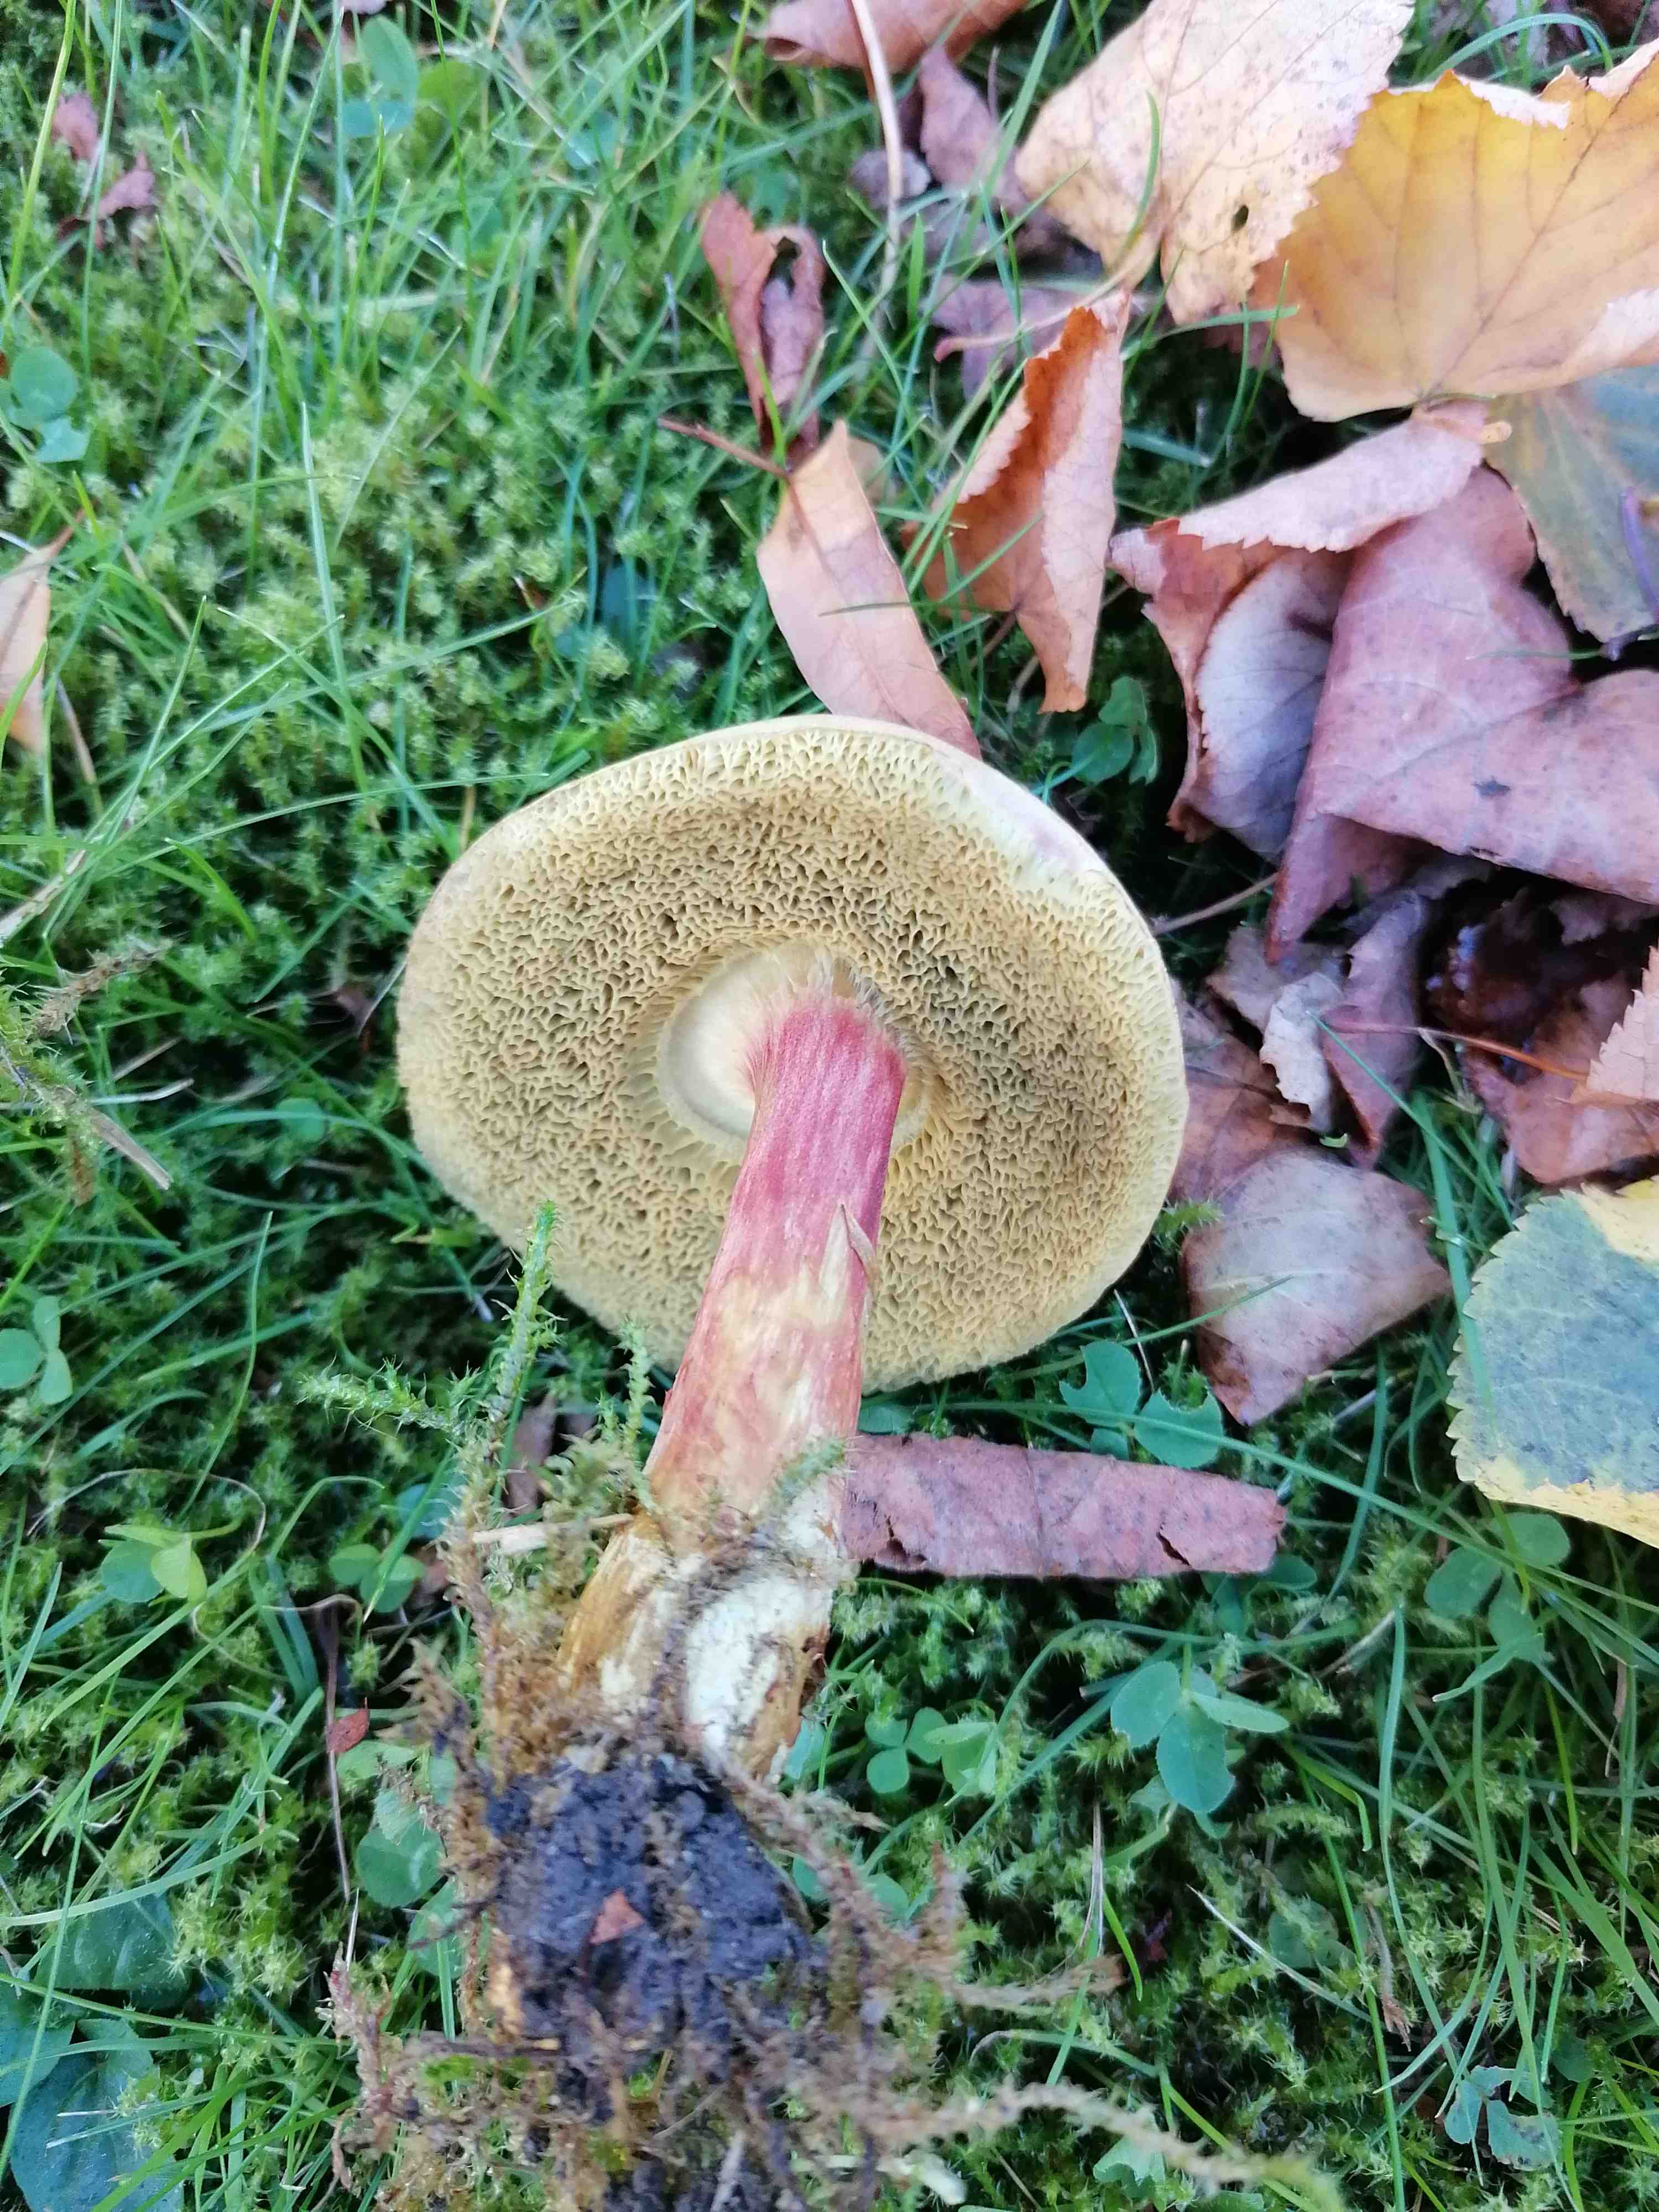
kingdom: Fungi
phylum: Basidiomycota
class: Agaricomycetes
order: Boletales
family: Boletaceae
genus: Hortiboletus
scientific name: Hortiboletus bubalinus
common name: aurora-rørhat
